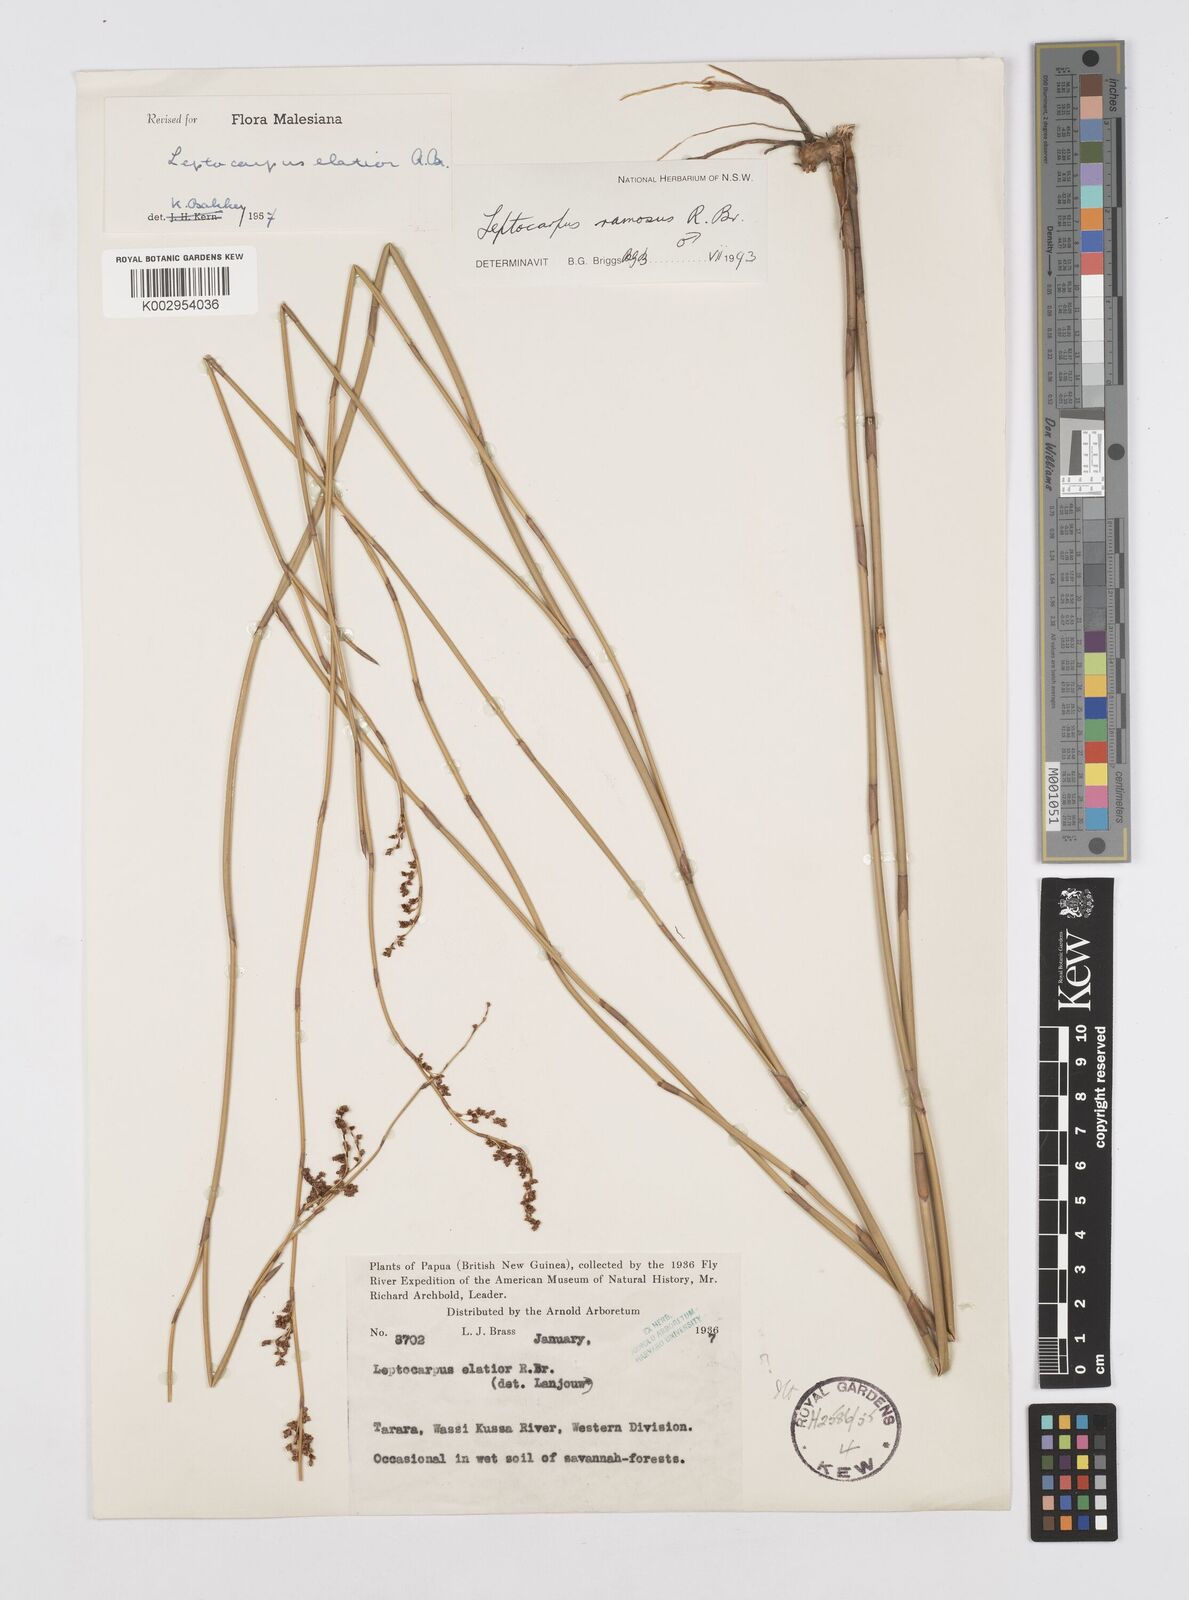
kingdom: Plantae
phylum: Tracheophyta
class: Liliopsida
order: Poales
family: Restionaceae
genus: Dapsilanthus
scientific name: Dapsilanthus elatior
